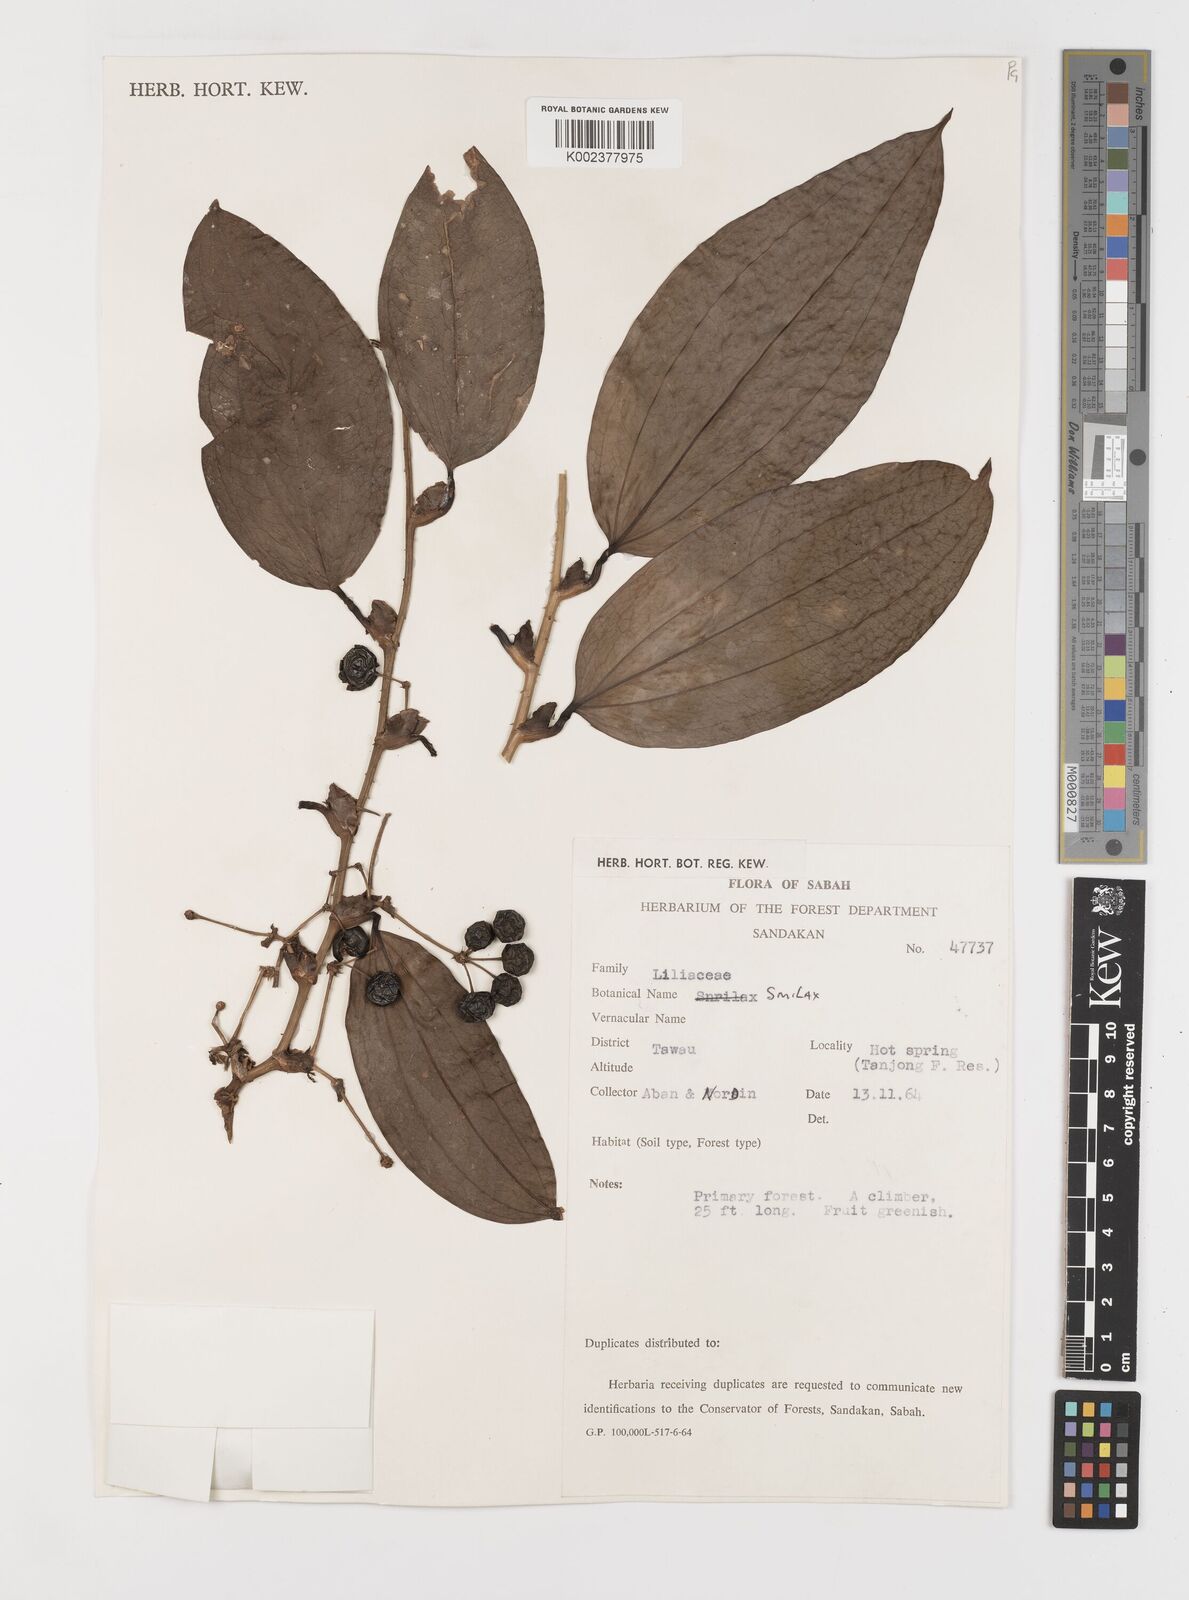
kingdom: Plantae
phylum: Tracheophyta
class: Liliopsida
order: Liliales
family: Smilacaceae
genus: Smilax
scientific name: Smilax
